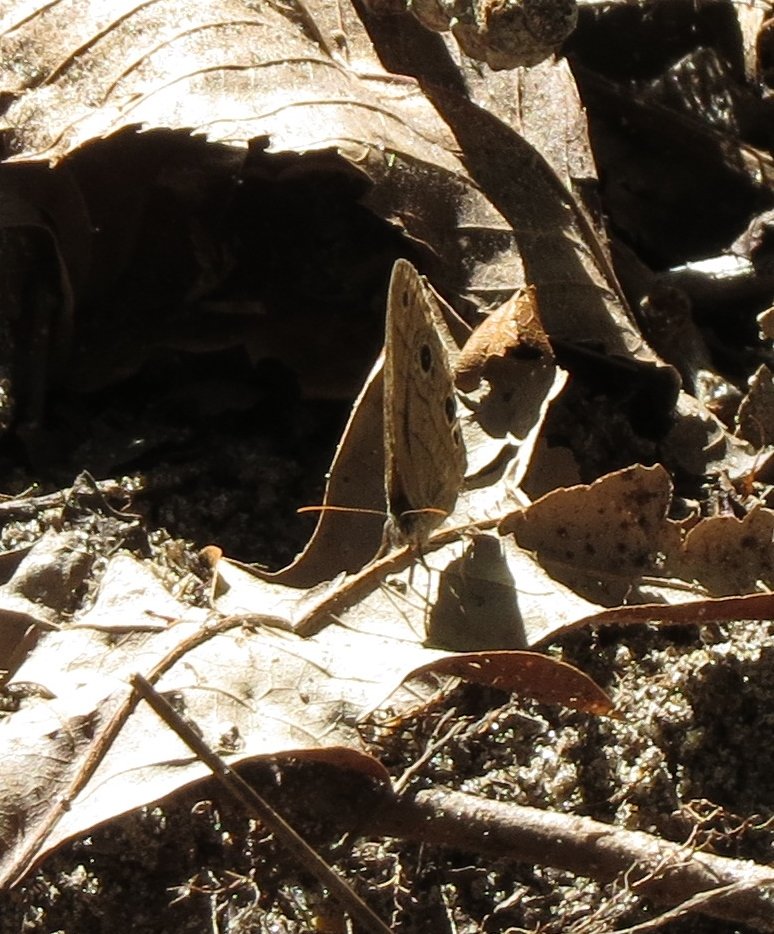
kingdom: Animalia
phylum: Arthropoda
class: Insecta
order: Lepidoptera
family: Nymphalidae
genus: Hermeuptychia
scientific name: Hermeuptychia hermes
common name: Carolina Satyr
